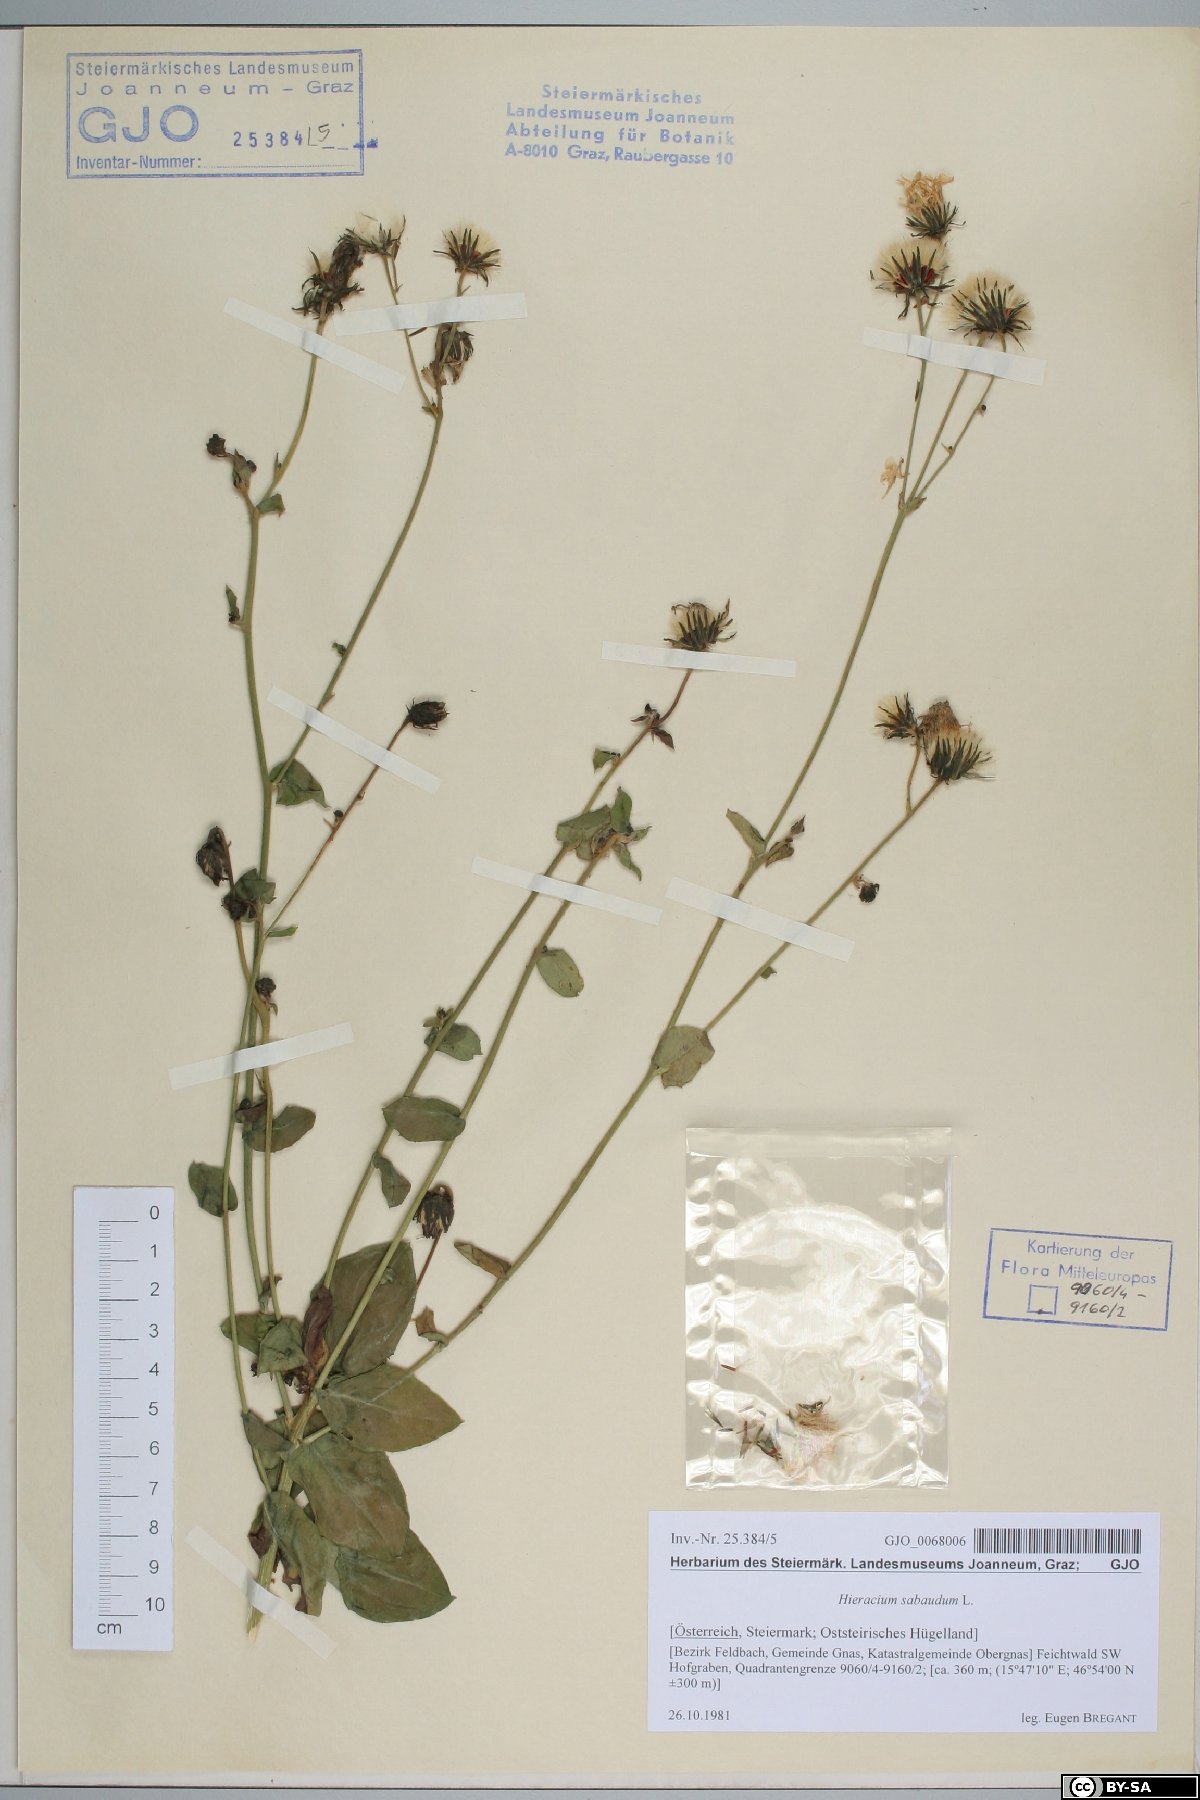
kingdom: Plantae
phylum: Tracheophyta
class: Magnoliopsida
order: Asterales
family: Asteraceae
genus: Hieracium
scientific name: Hieracium sabaudum
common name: New england hawkweed
